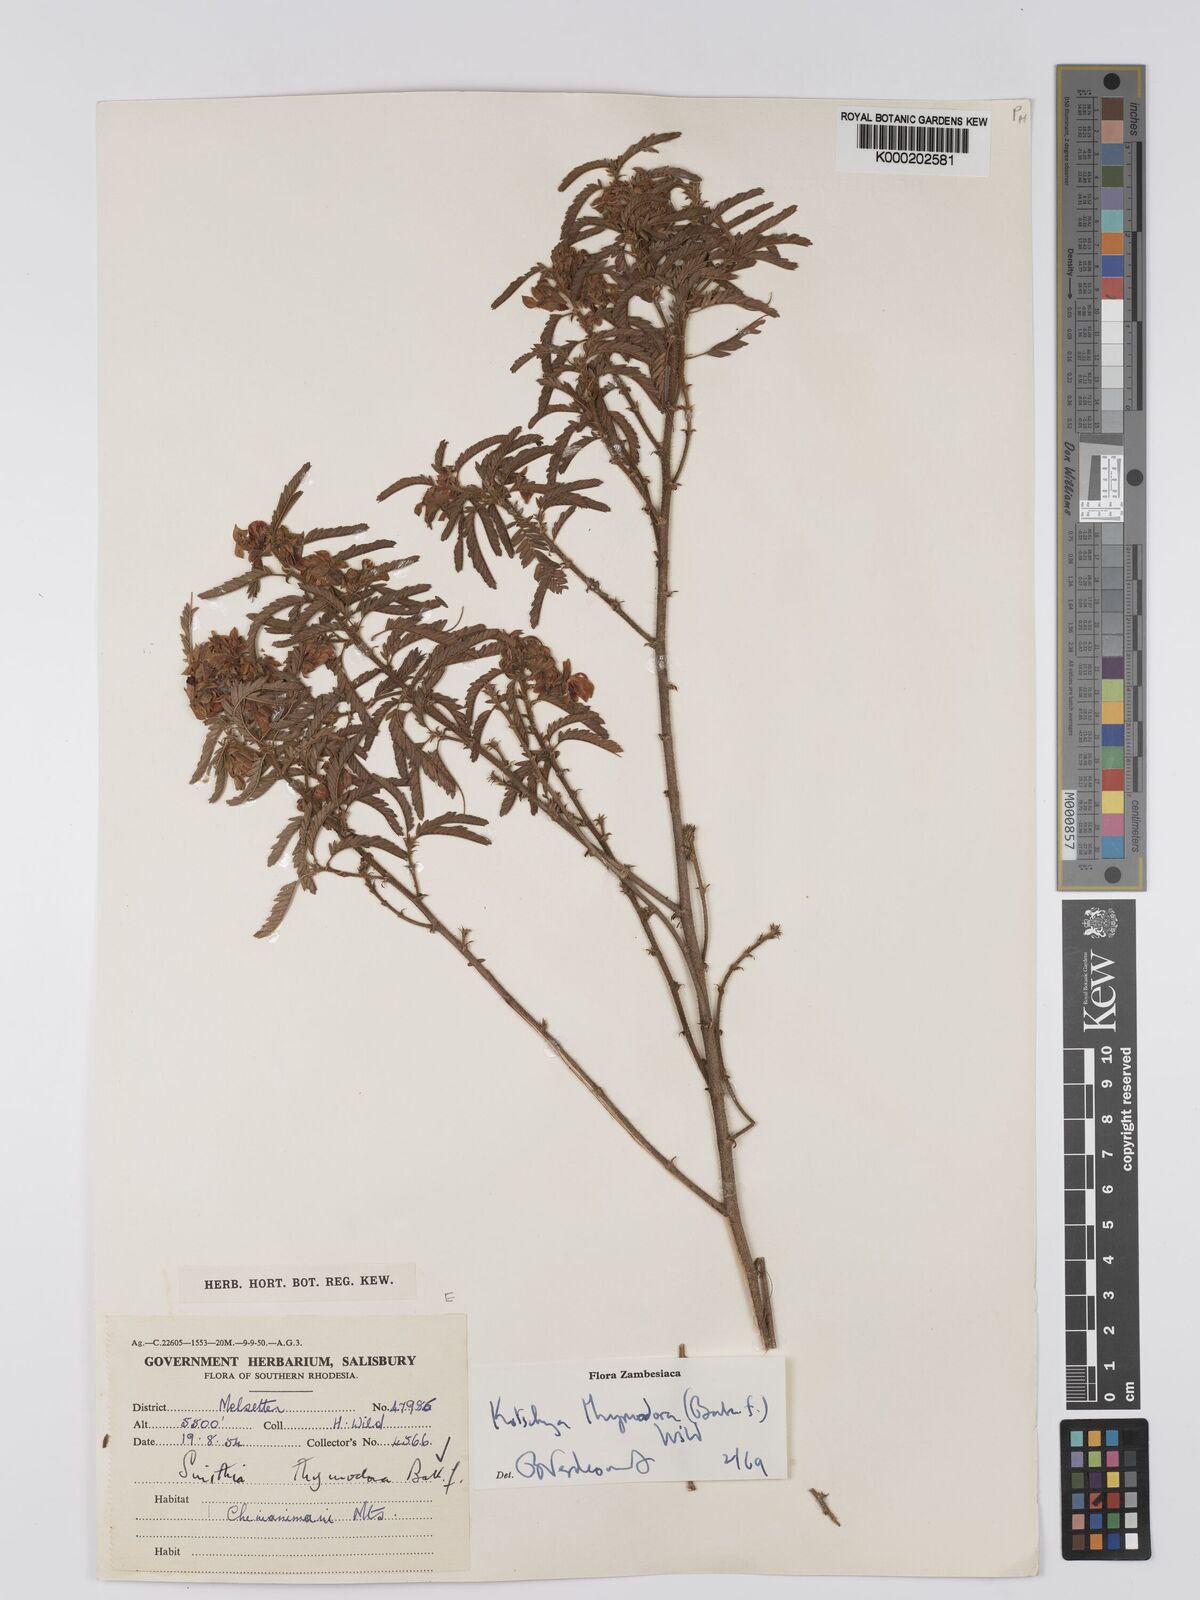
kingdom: Plantae
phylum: Tracheophyta
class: Magnoliopsida
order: Fabales
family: Fabaceae
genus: Kotschya
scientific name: Kotschya thymodora
